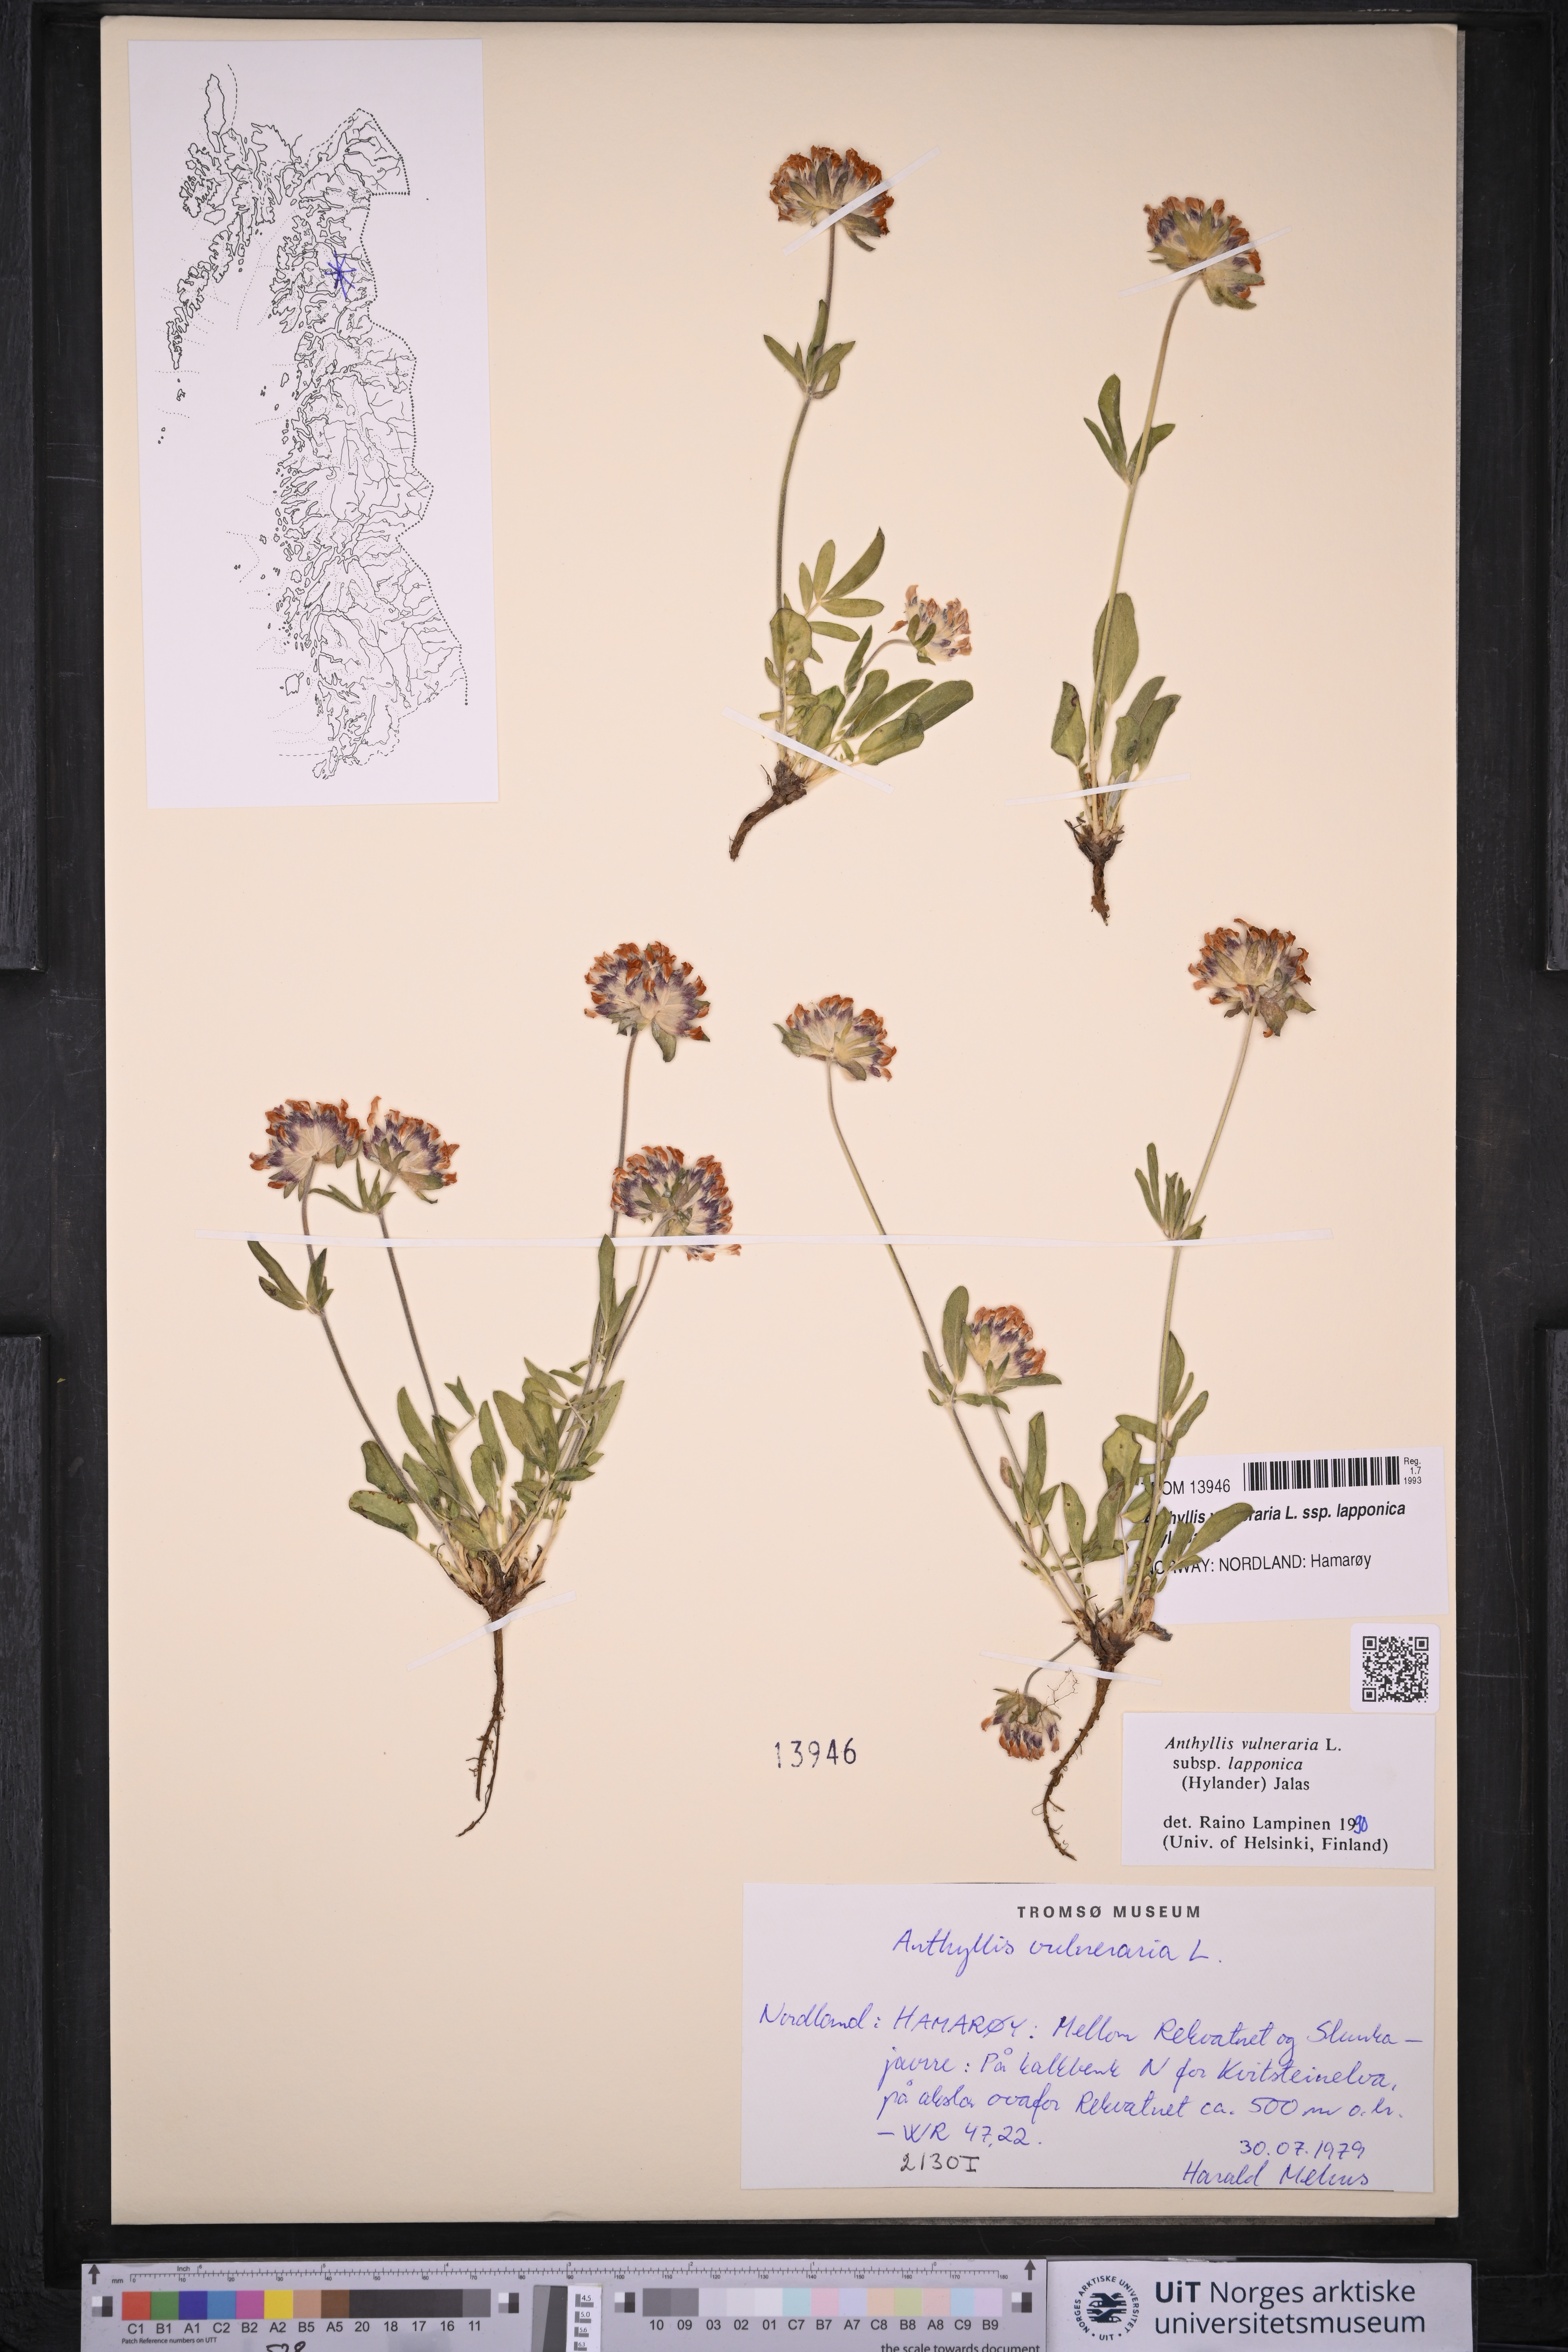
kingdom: Plantae
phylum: Tracheophyta
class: Magnoliopsida
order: Fabales
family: Fabaceae
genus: Anthyllis
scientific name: Anthyllis vulneraria
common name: Kidney vetch
